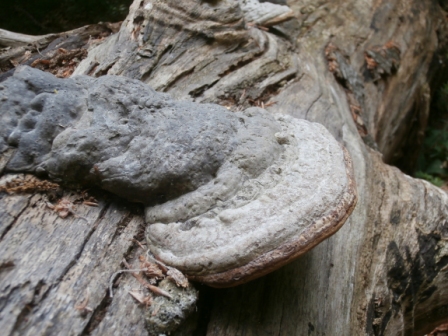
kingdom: Fungi
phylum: Basidiomycota
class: Agaricomycetes
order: Polyporales
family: Polyporaceae
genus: Fomes
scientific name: Fomes fomentarius
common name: tøndersvamp
